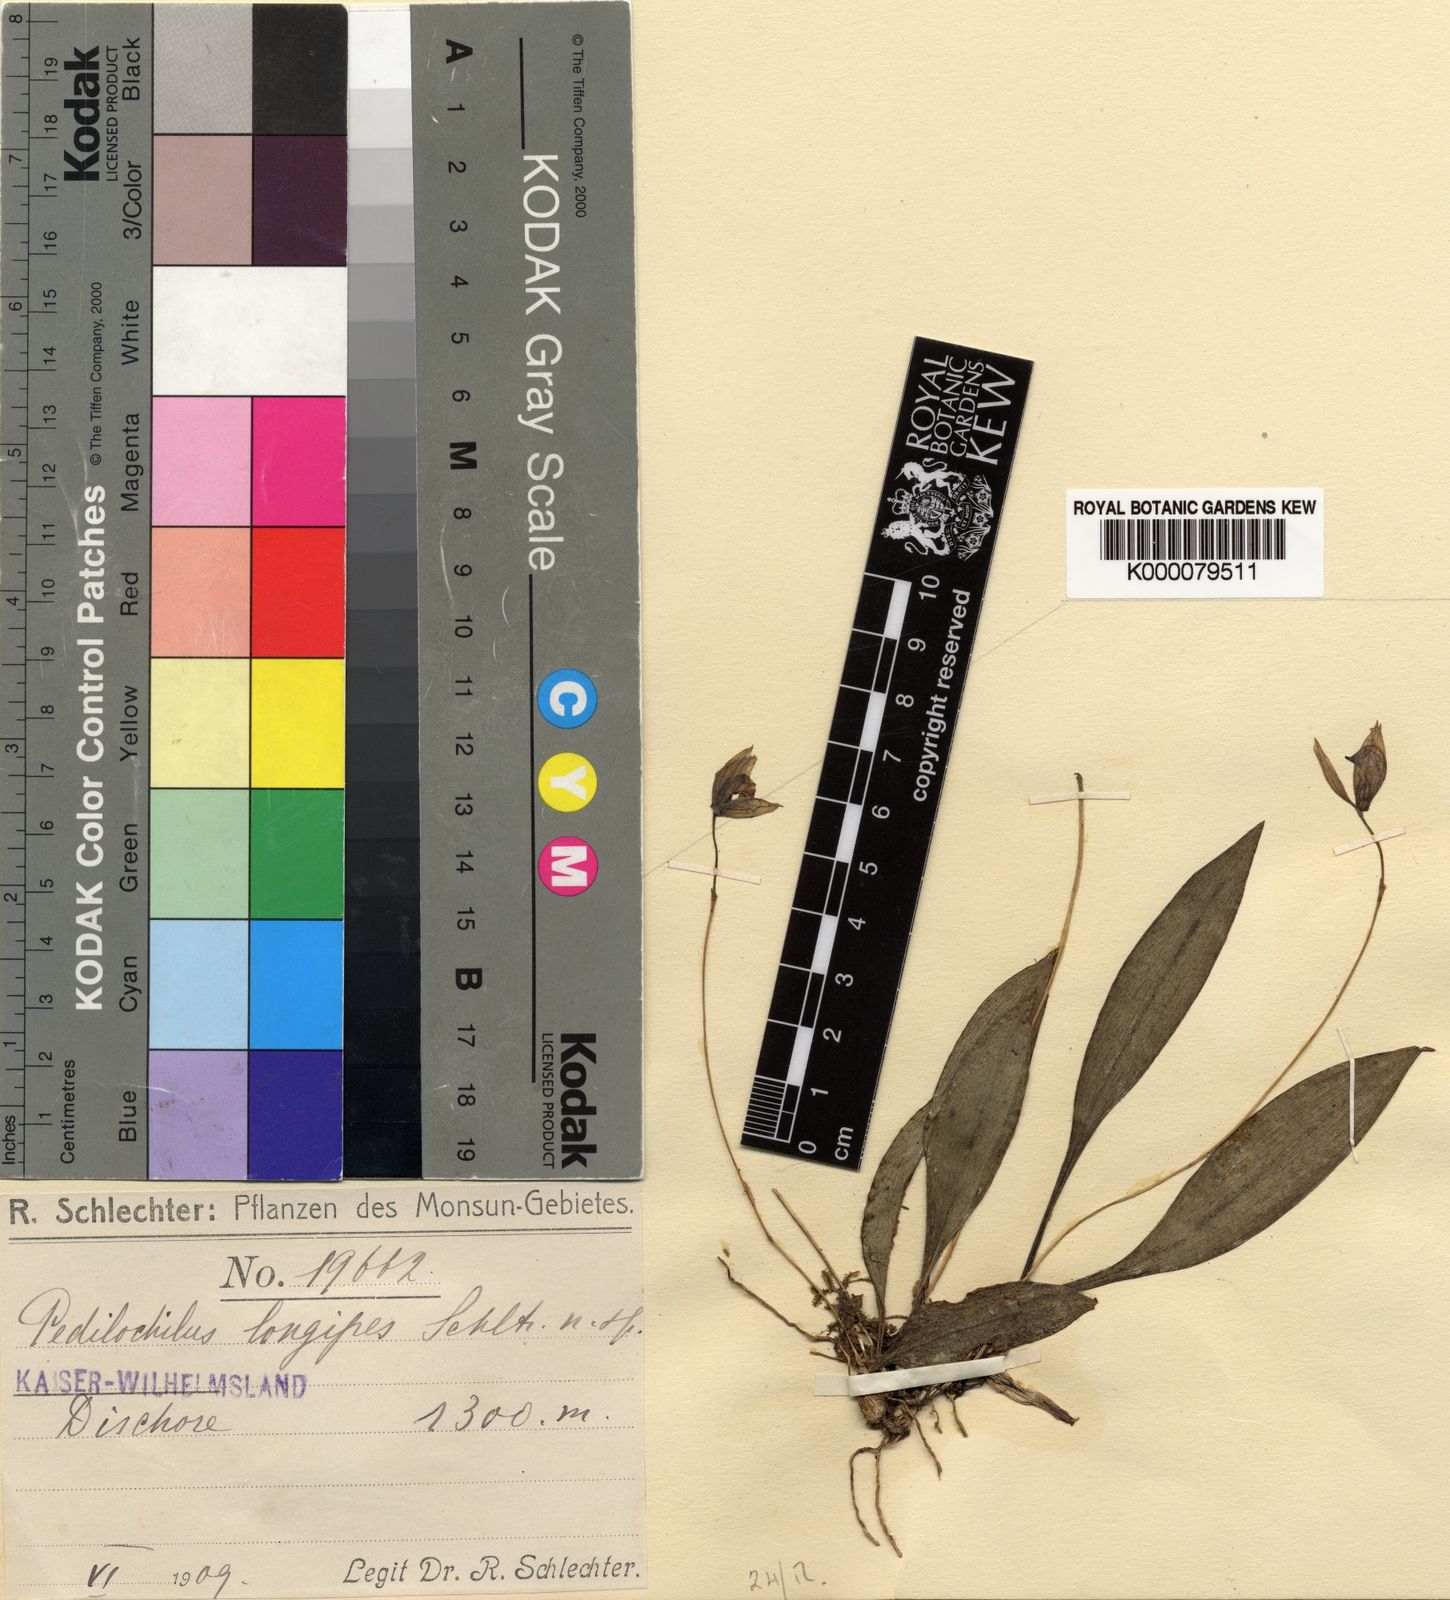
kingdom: Plantae
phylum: Tracheophyta
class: Liliopsida
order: Asparagales
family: Orchidaceae
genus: Bulbophyllum
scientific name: Bulbophyllum dolichopus
